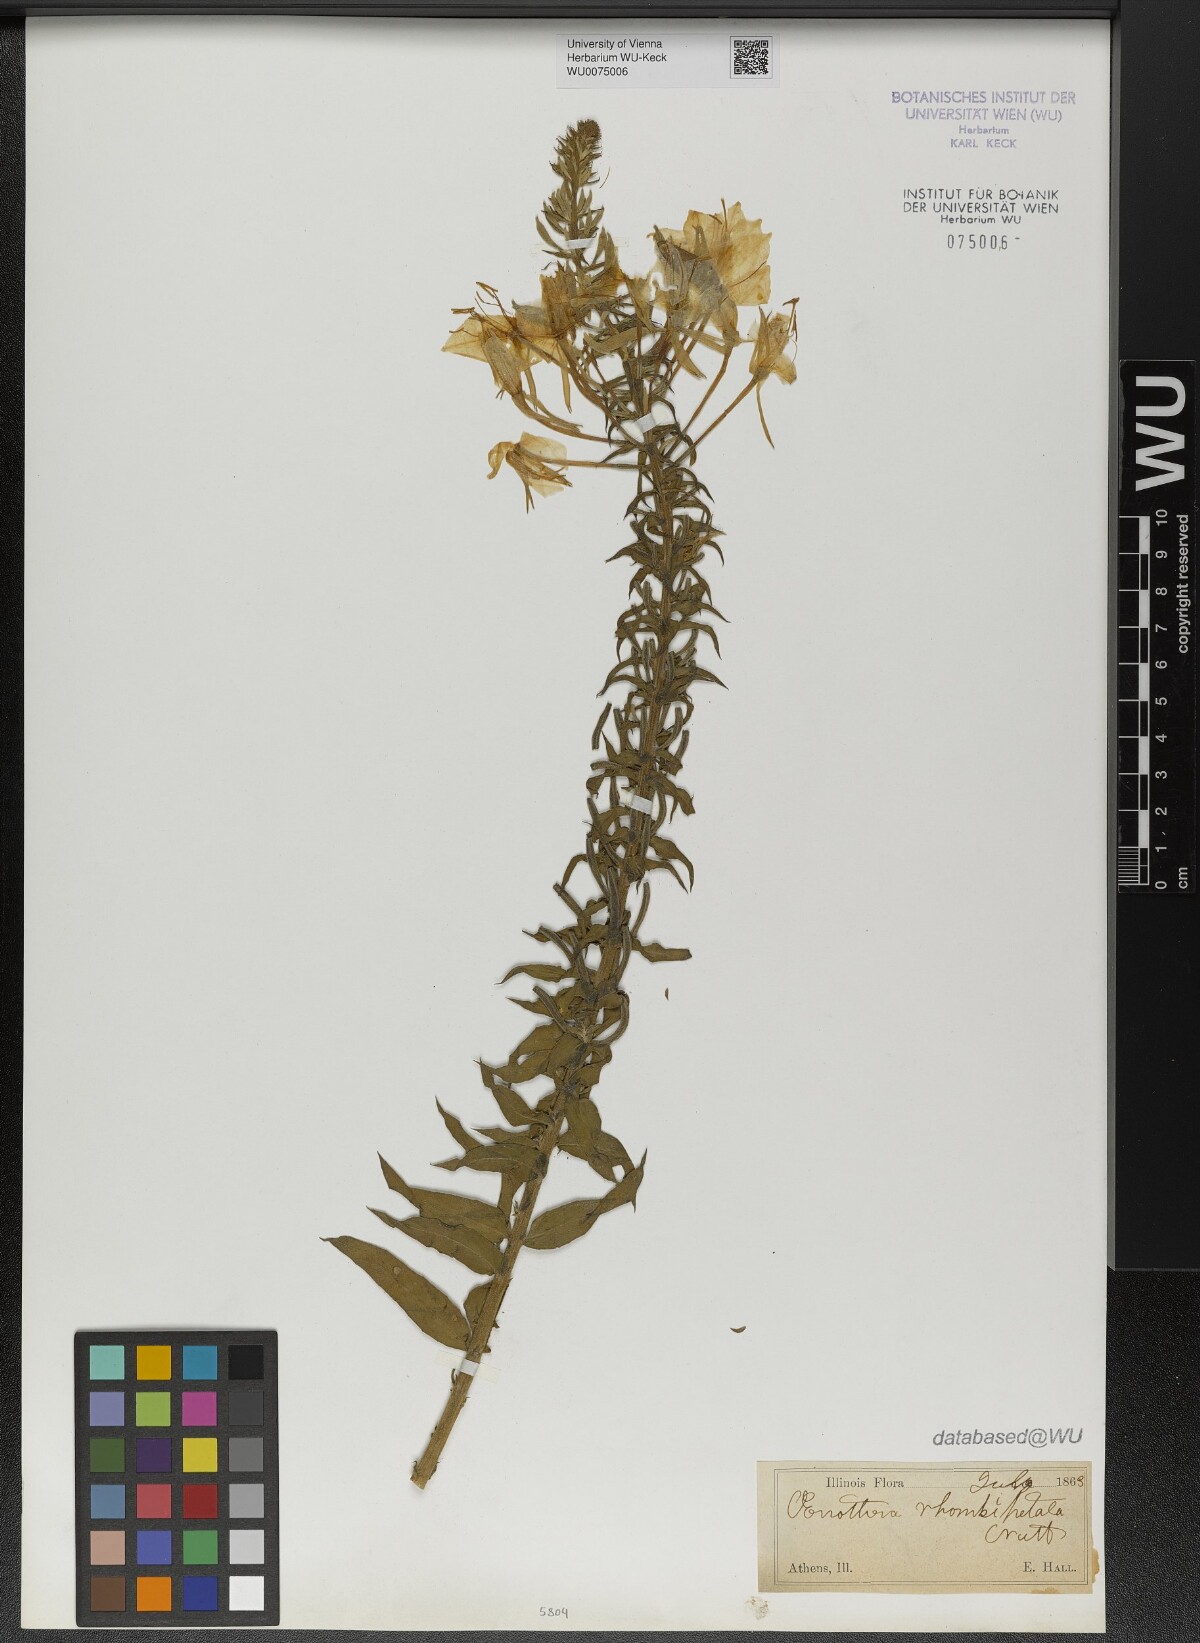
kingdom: Plantae
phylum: Tracheophyta
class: Magnoliopsida
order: Myrtales
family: Onagraceae
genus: Oenothera
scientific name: Oenothera rhombipetala
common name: Four-points evening-primrose
